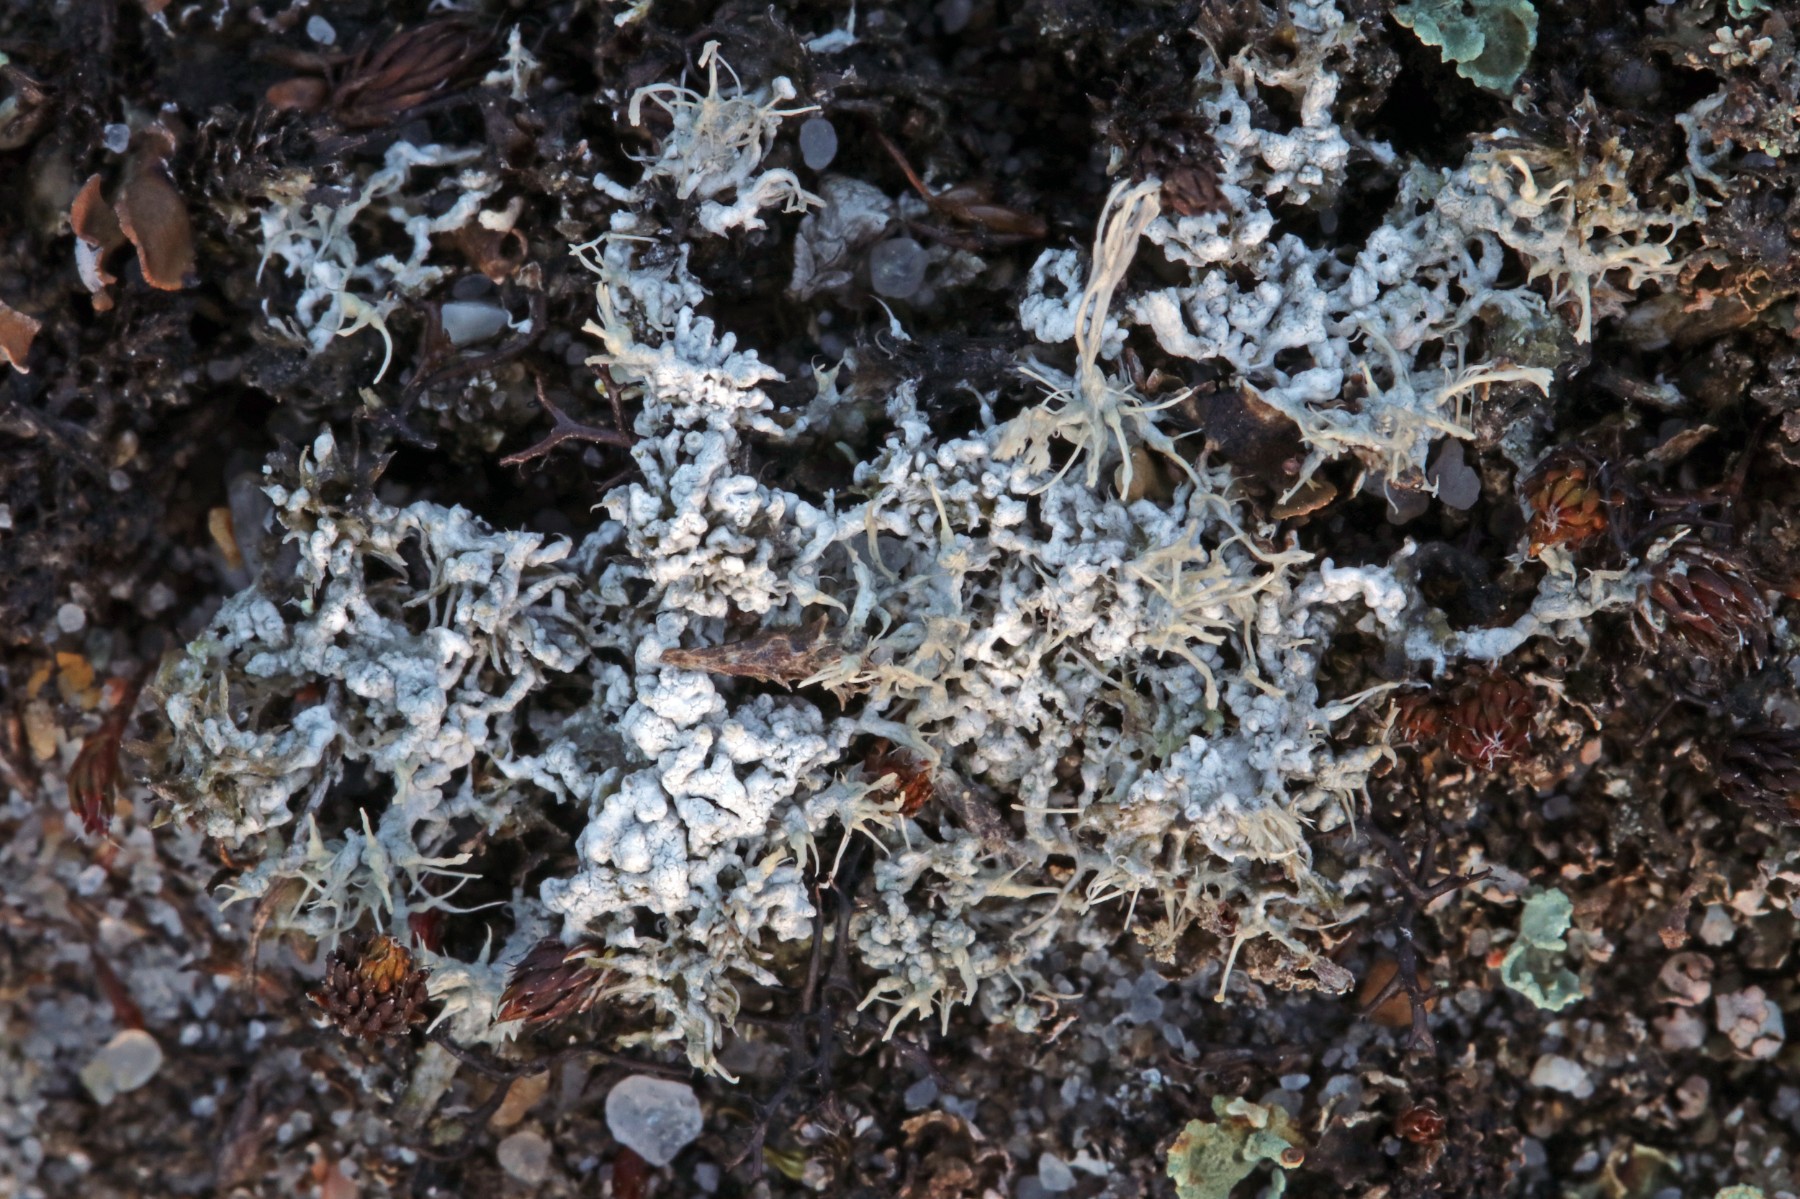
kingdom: Fungi
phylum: Ascomycota
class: Lecanoromycetes
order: Pertusariales
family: Ochrolechiaceae
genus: Ochrolechia
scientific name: Ochrolechia frigida
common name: fjeld-blegskivelav
